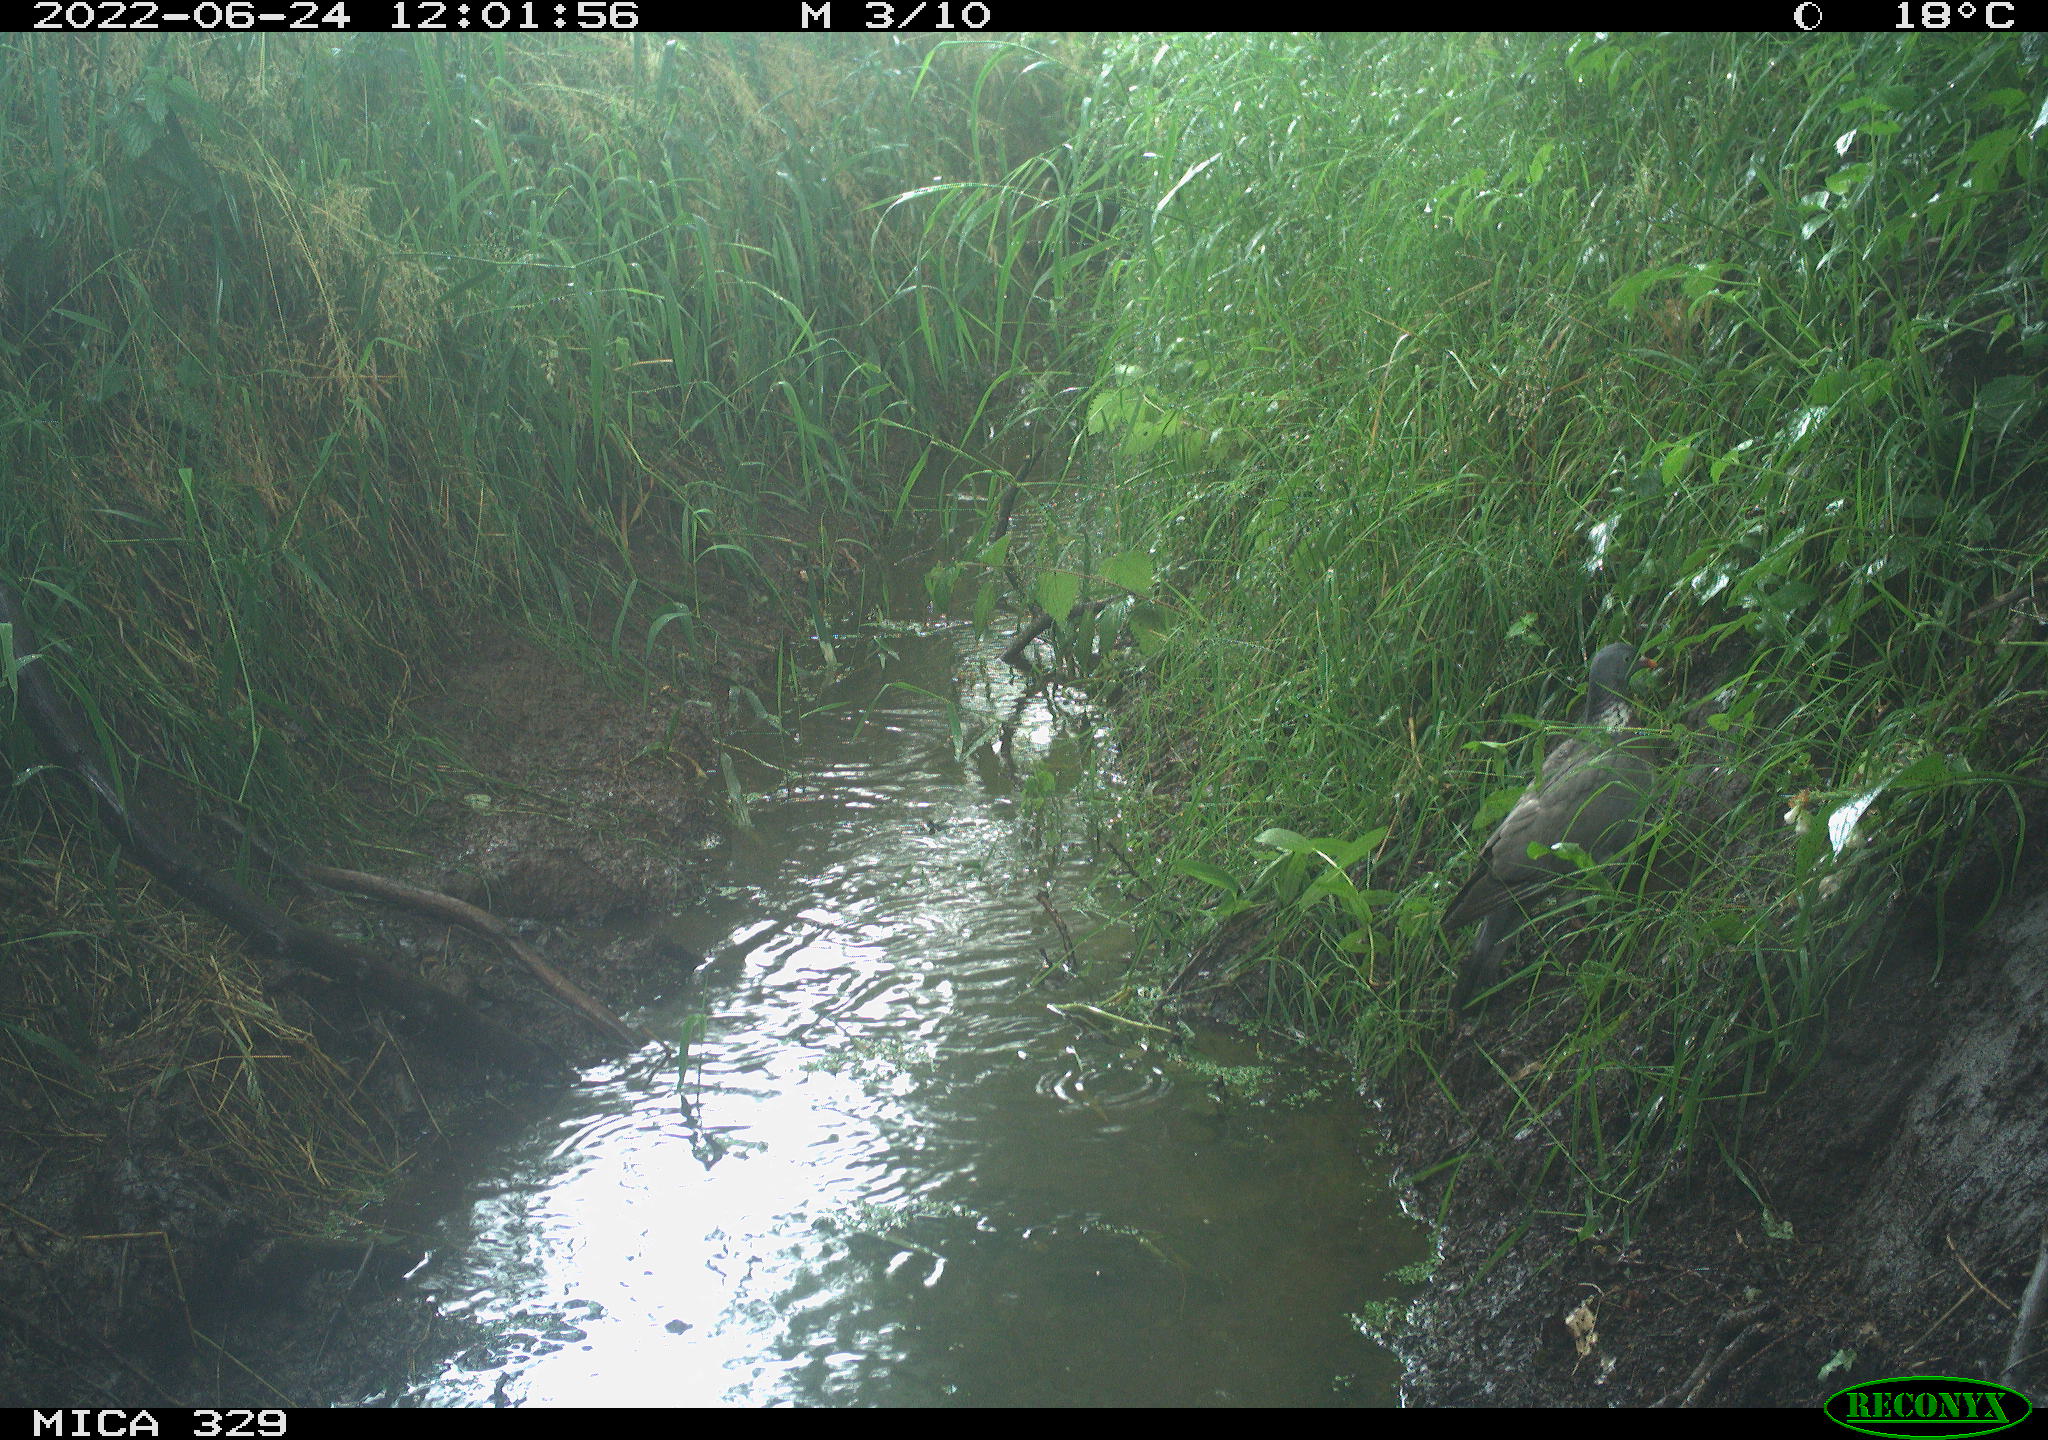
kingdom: Animalia
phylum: Chordata
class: Aves
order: Columbiformes
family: Columbidae
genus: Columba
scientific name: Columba palumbus
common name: Common wood pigeon
